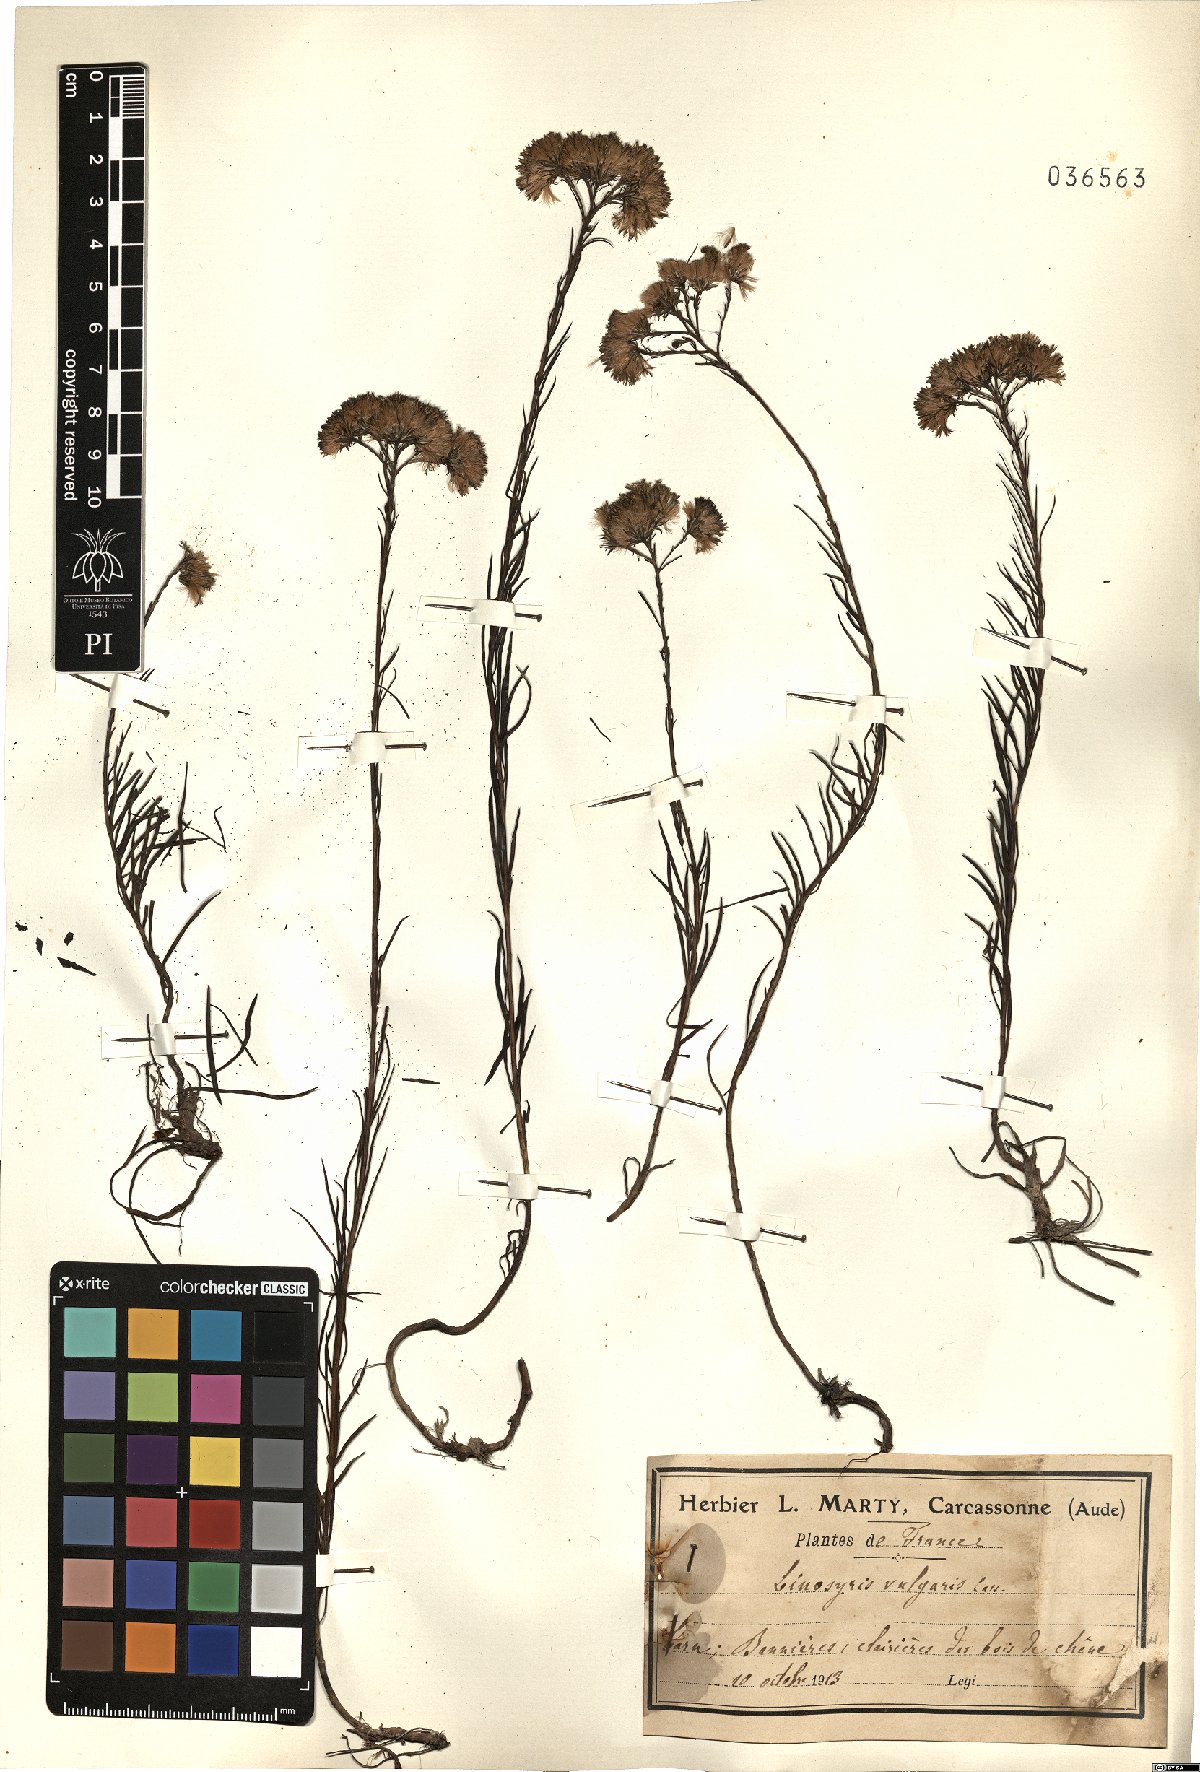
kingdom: Plantae
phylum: Tracheophyta
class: Magnoliopsida
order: Asterales
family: Asteraceae
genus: Galatella
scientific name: Galatella linosyris
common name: Goldilocks aster
